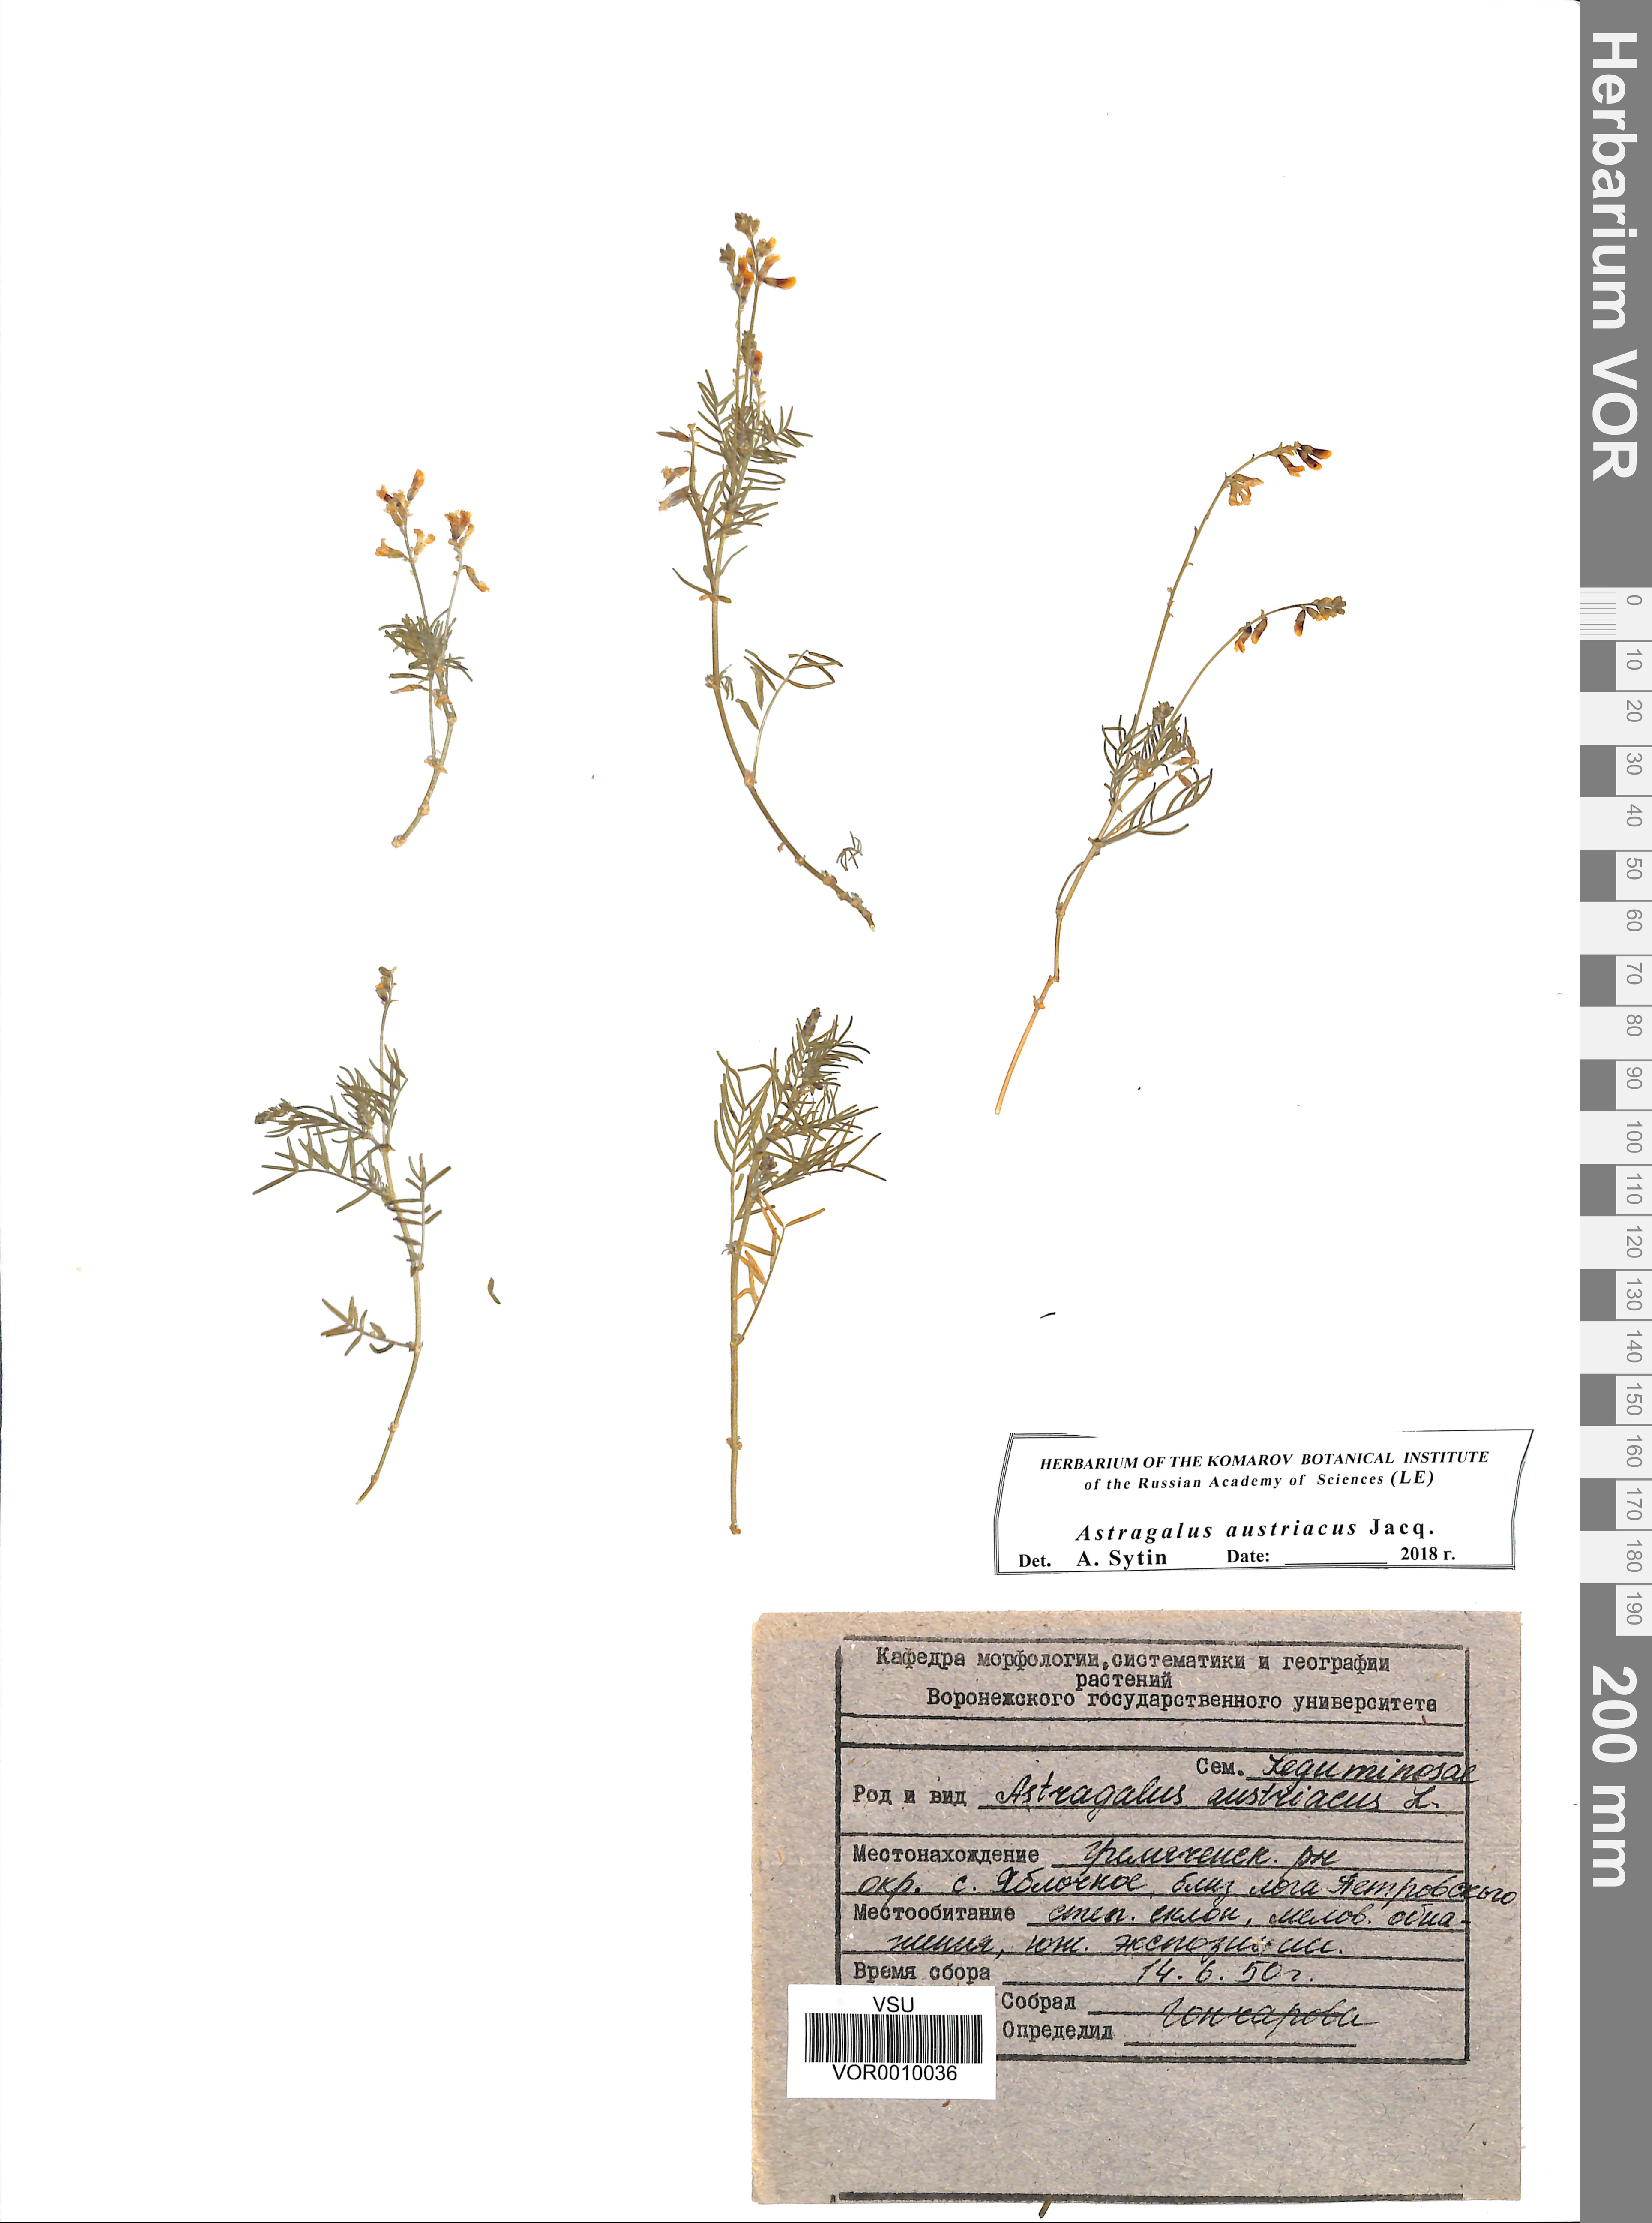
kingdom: Plantae
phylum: Tracheophyta
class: Magnoliopsida
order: Fabales
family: Fabaceae
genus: Astragalus
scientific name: Astragalus austriacus
